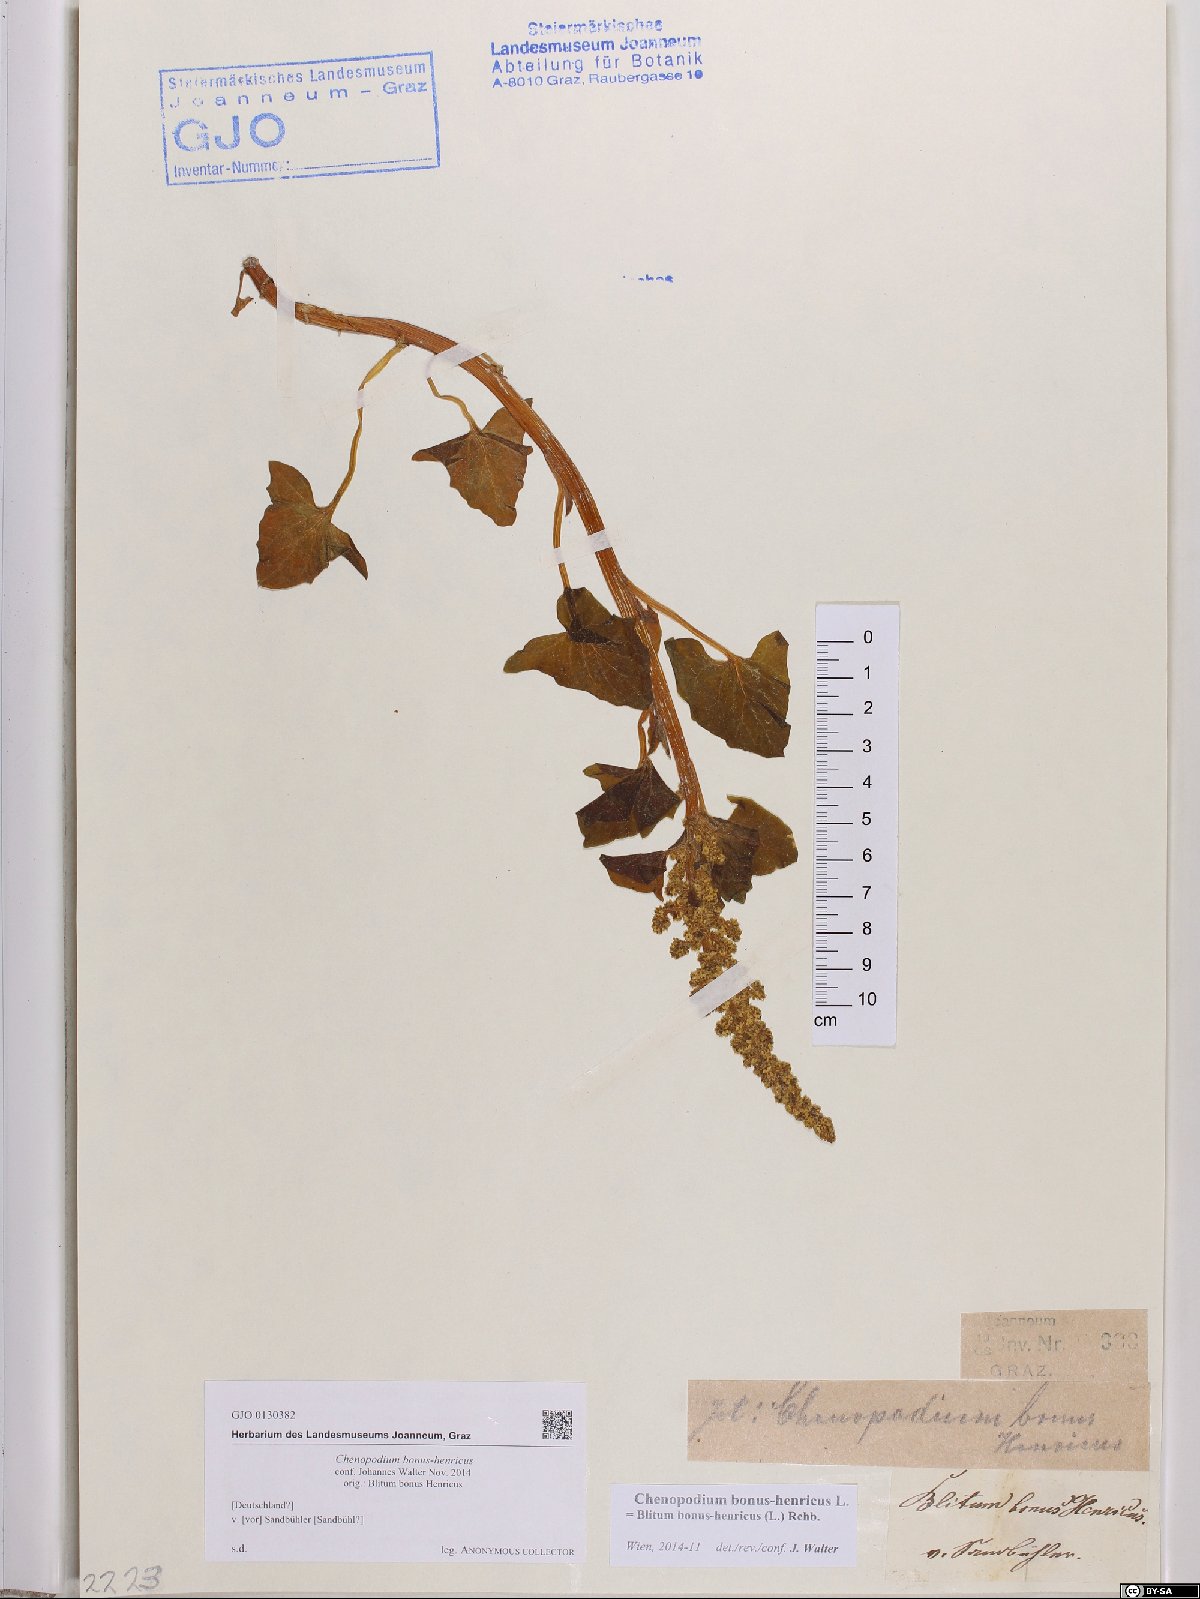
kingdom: Plantae
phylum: Tracheophyta
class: Magnoliopsida
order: Caryophyllales
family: Amaranthaceae
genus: Blitum
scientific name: Blitum bonus-henricus
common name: Good king henry
